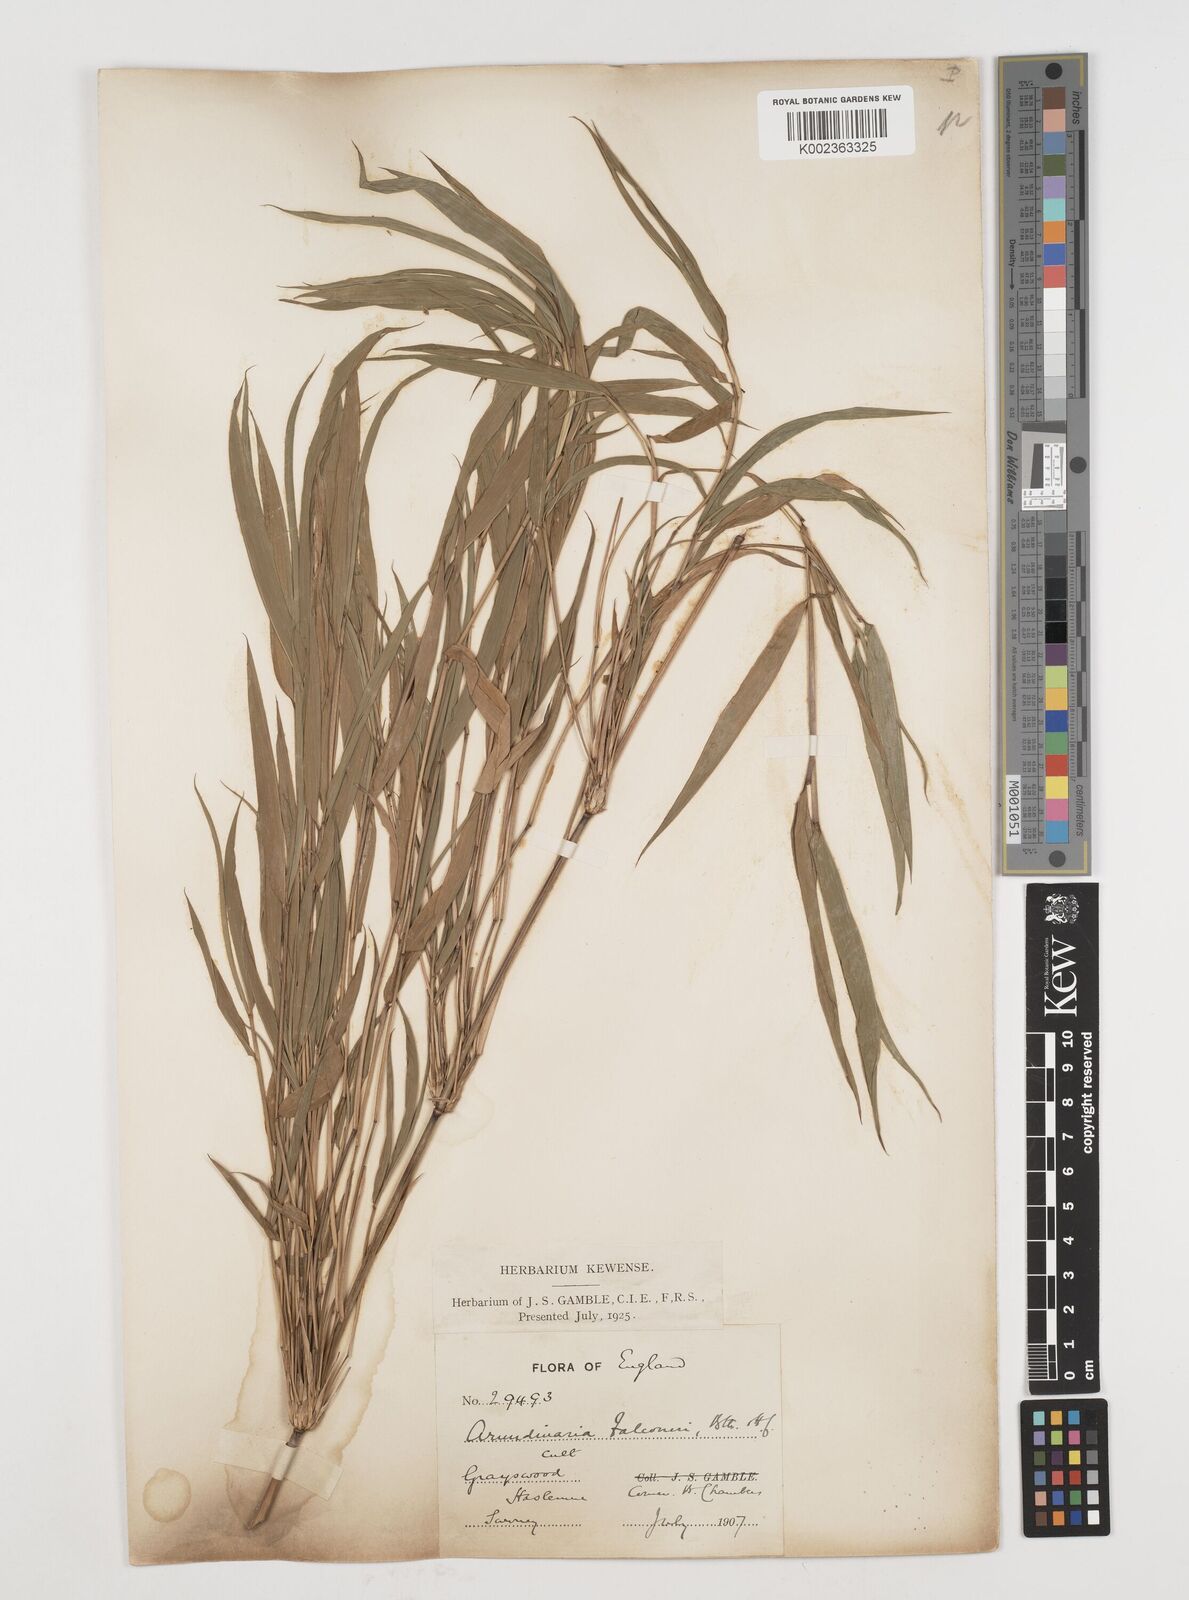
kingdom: Plantae
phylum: Tracheophyta
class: Liliopsida
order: Poales
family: Poaceae
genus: Himalayacalamus
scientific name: Himalayacalamus falconeri
